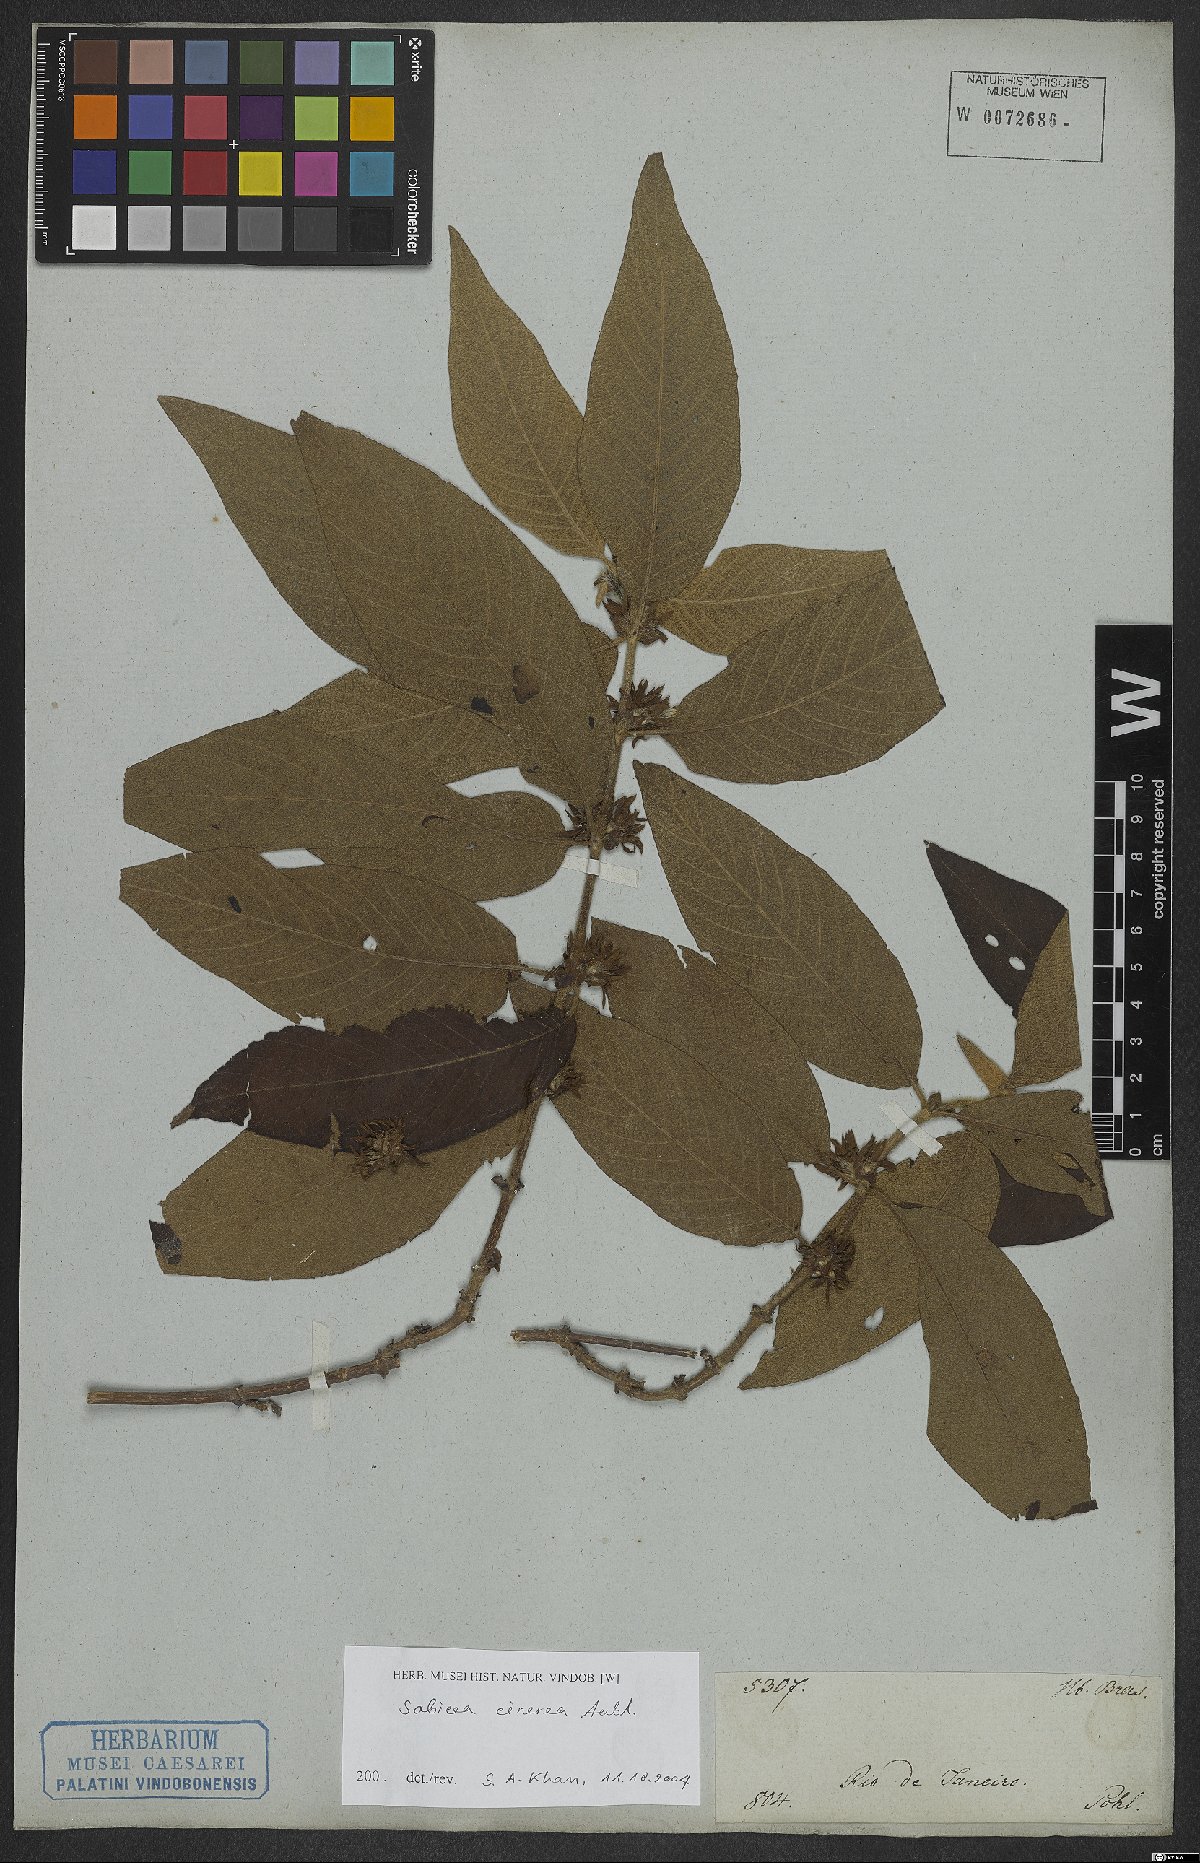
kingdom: Plantae
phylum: Tracheophyta
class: Magnoliopsida
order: Gentianales
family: Rubiaceae
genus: Sabicea
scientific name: Sabicea cinerea
